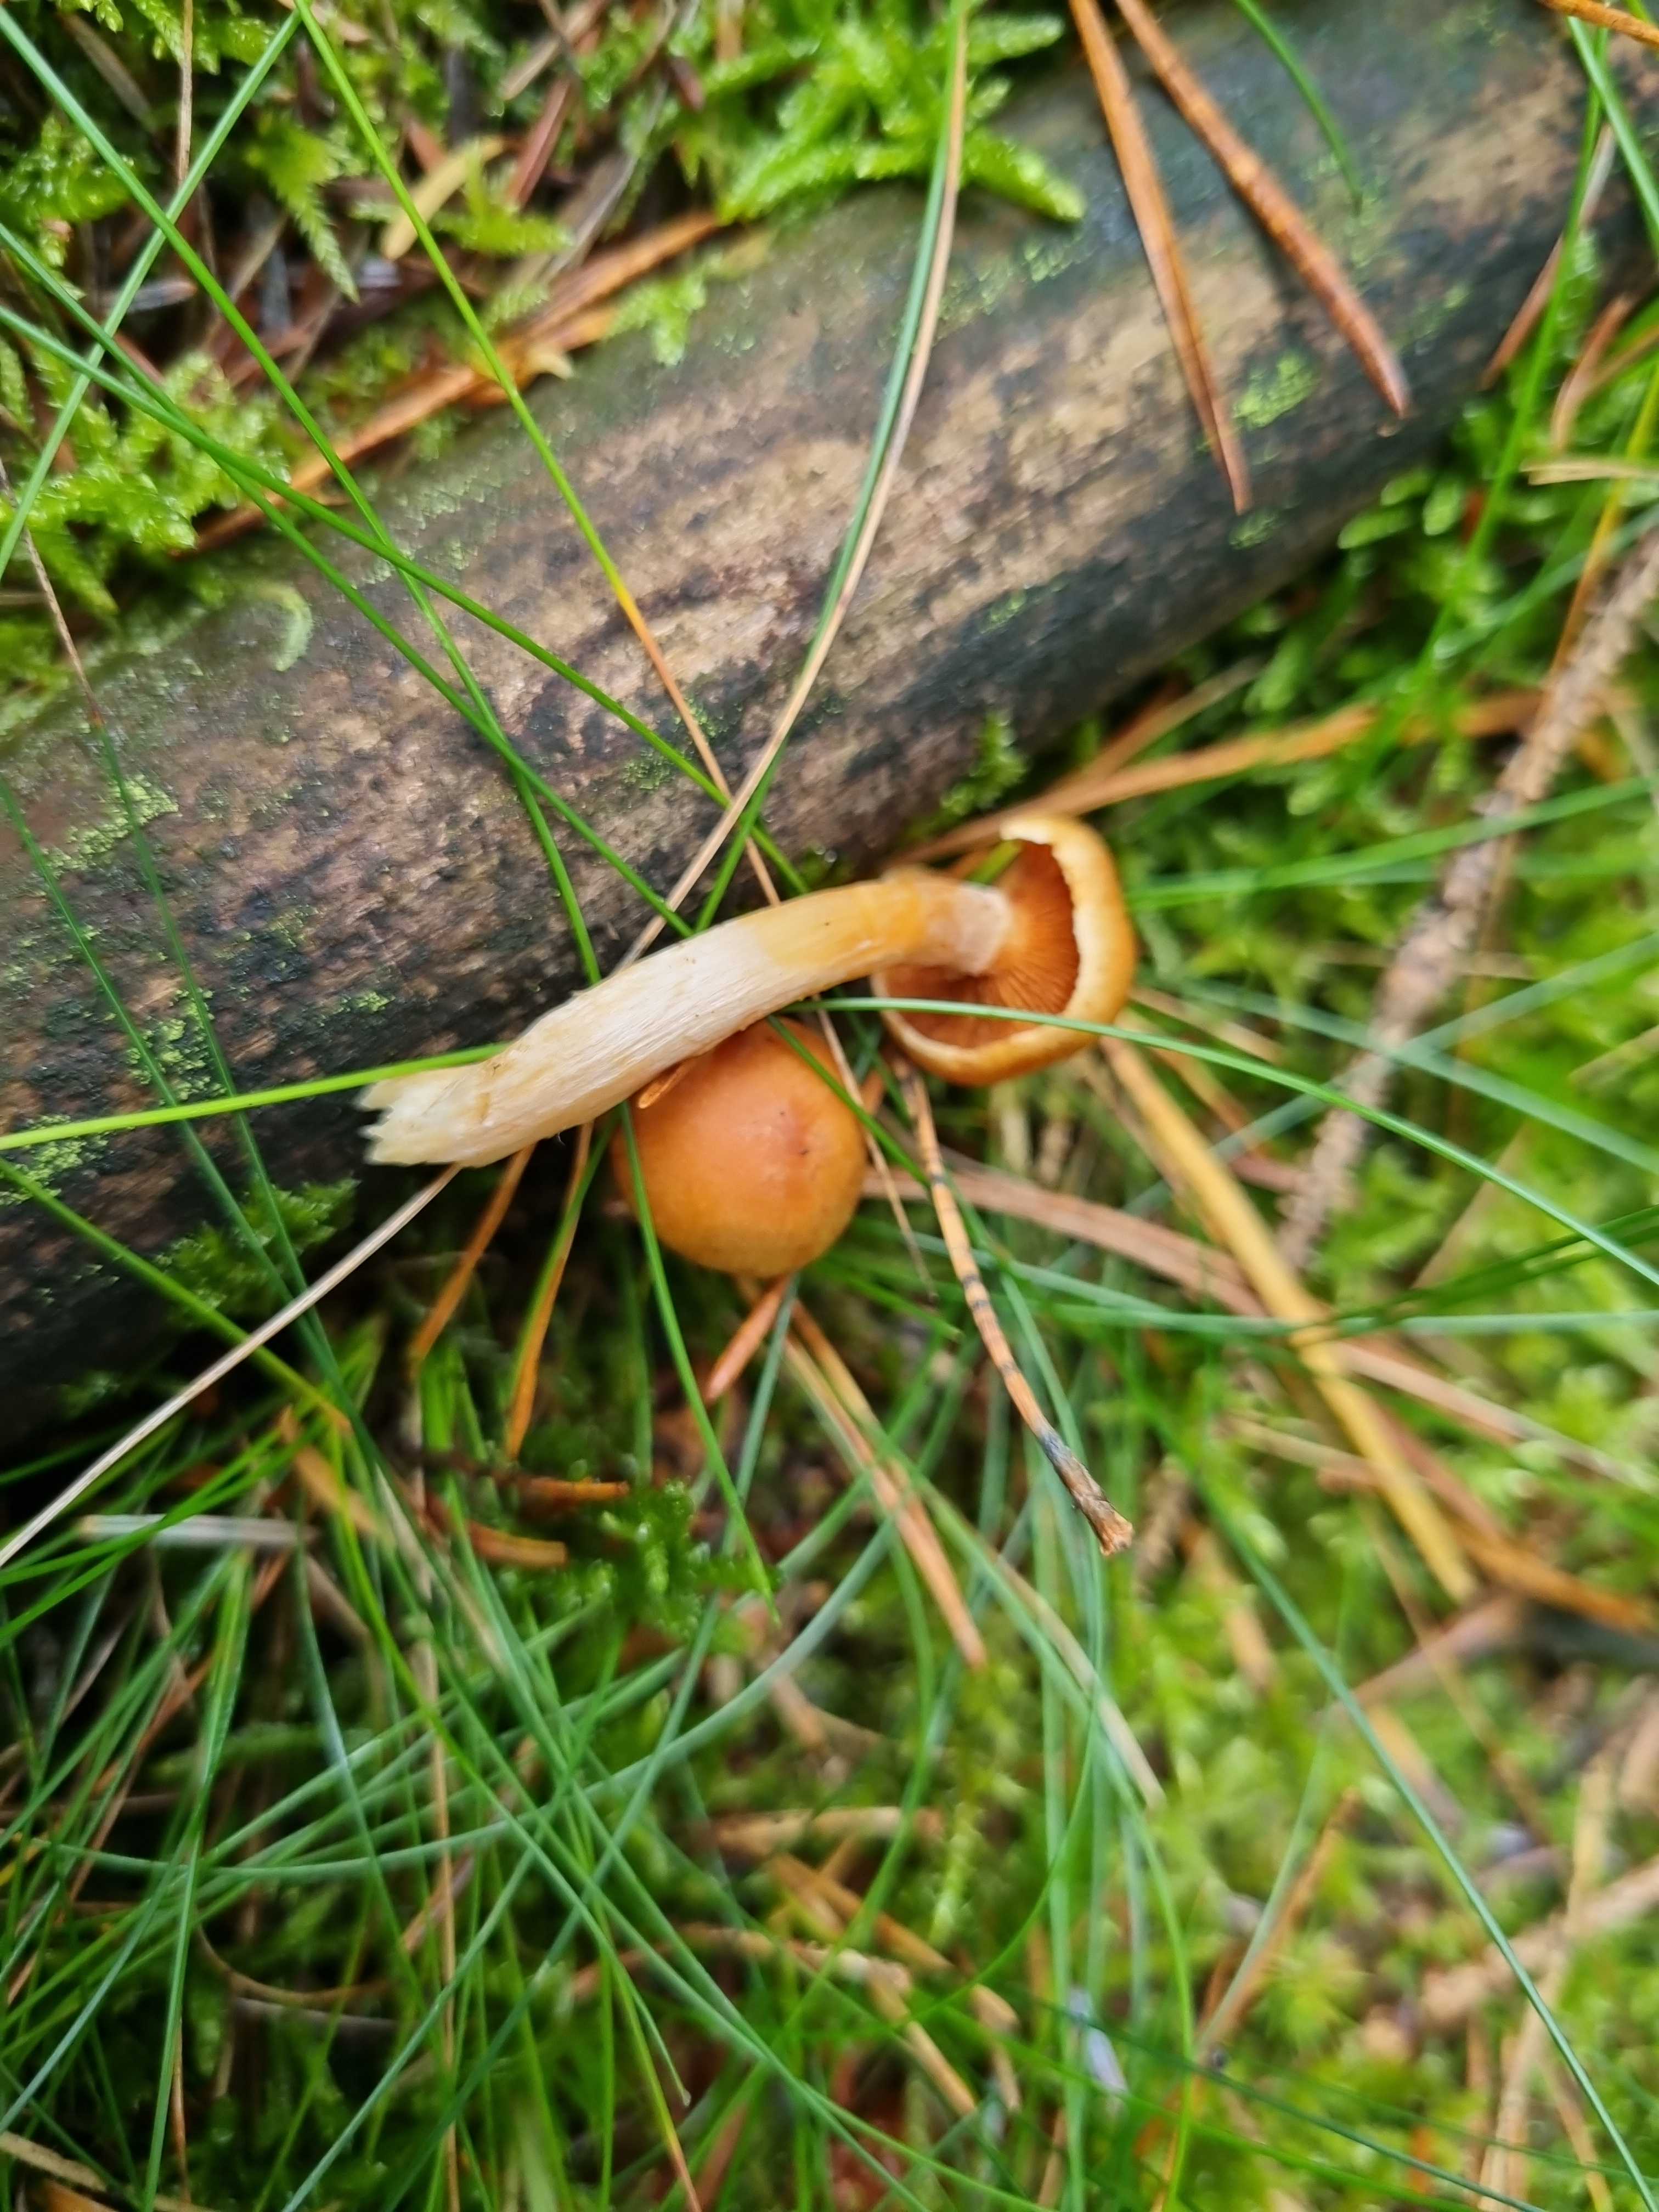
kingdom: Fungi
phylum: Basidiomycota
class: Agaricomycetes
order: Agaricales
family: Hymenogastraceae
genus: Gymnopilus
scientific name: Gymnopilus penetrans
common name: plettet flammehat
